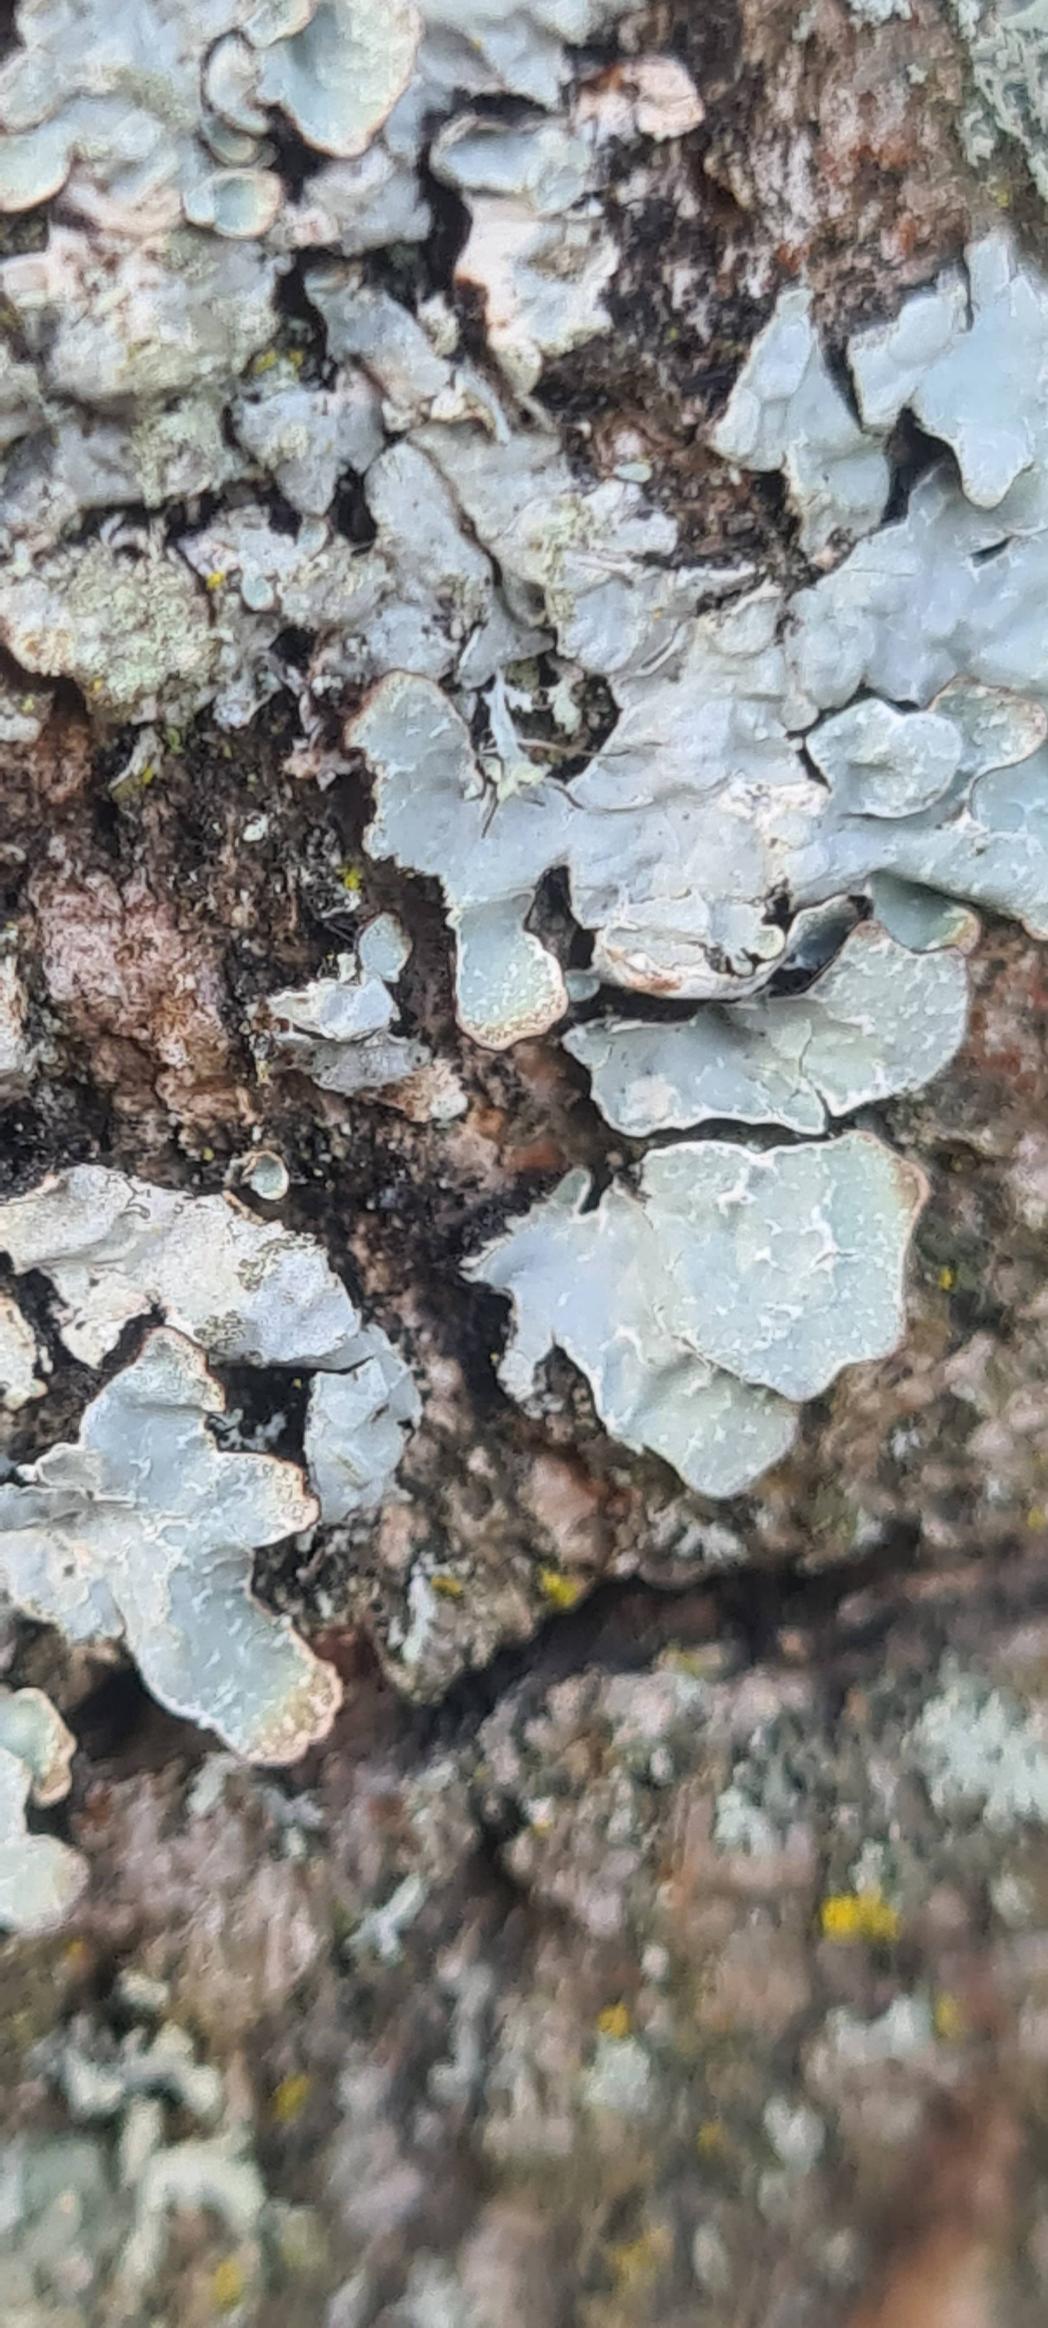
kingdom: Fungi
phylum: Ascomycota
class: Lecanoromycetes
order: Lecanorales
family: Parmeliaceae
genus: Parmelia
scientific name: Parmelia sulcata
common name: Rynket skållav
